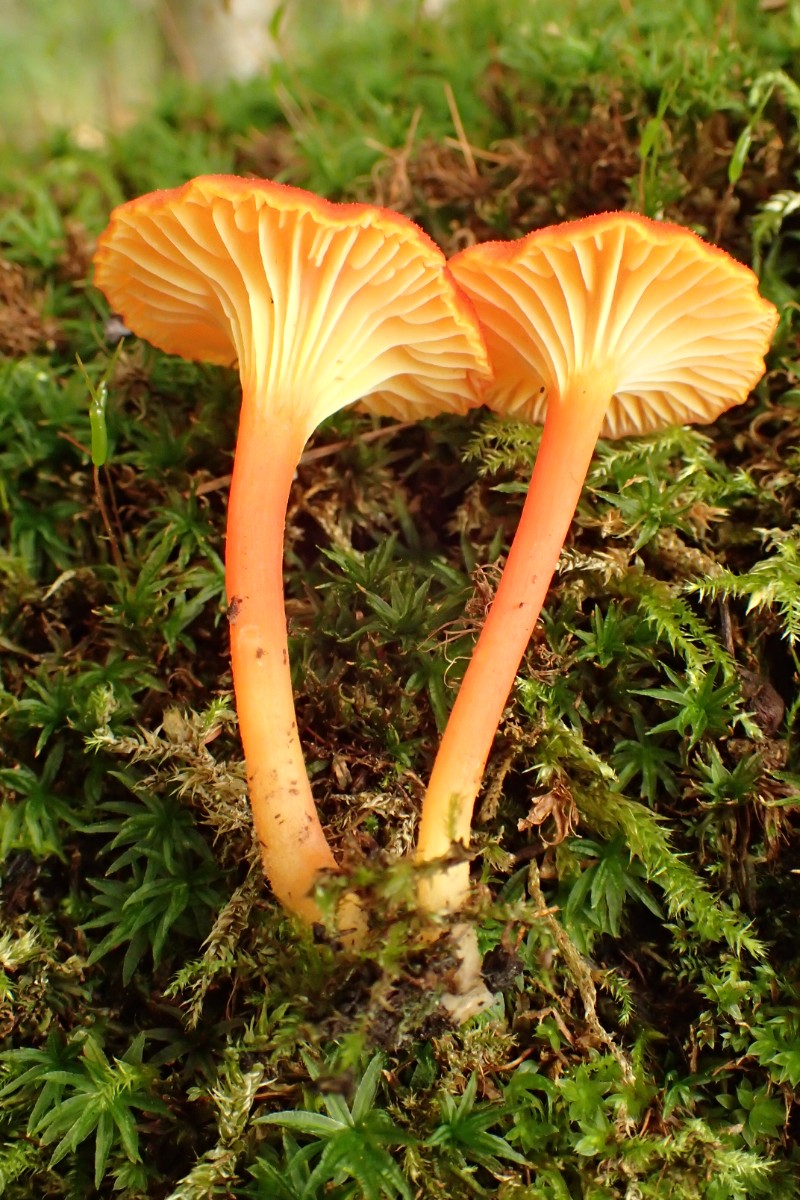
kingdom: Fungi
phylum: Basidiomycota
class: Agaricomycetes
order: Agaricales
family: Hygrophoraceae
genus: Hygrocybe
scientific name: Hygrocybe cantharellus
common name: kantarel-vokshat
